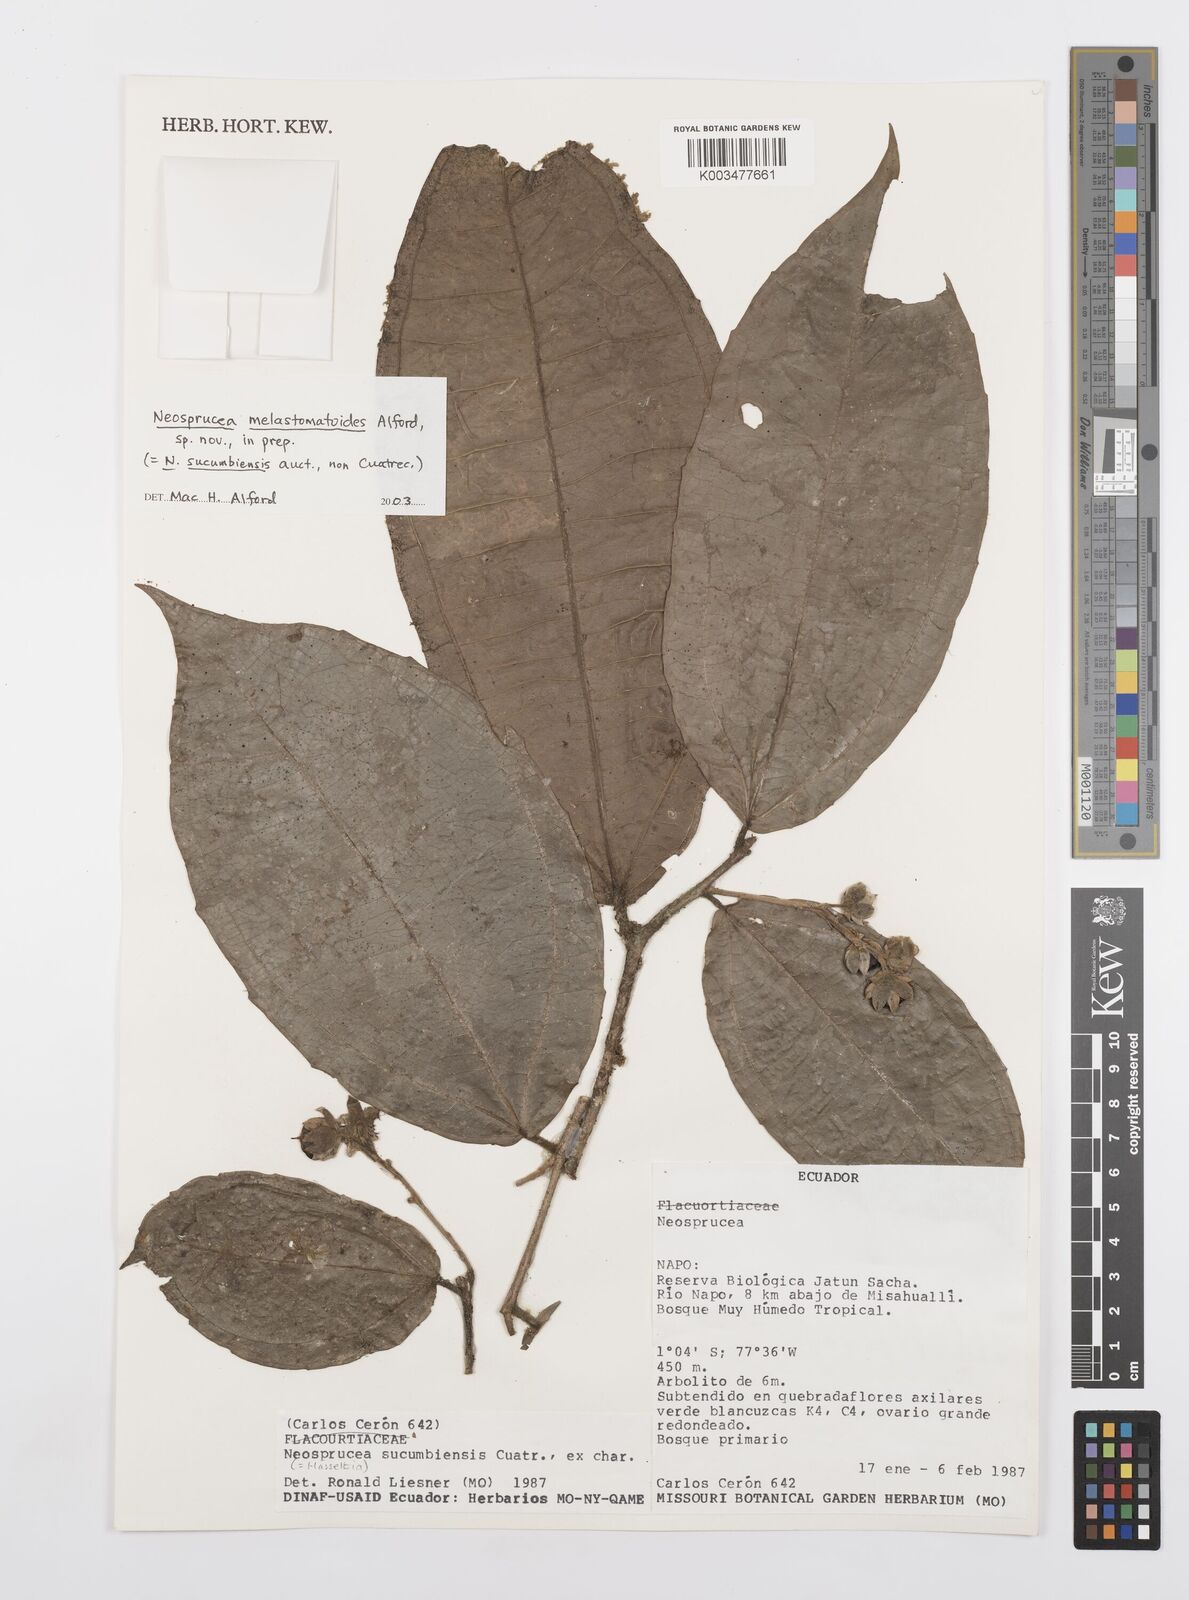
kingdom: Plantae
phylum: Tracheophyta
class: Magnoliopsida
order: Malpighiales
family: Salicaceae
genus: Neosprucea
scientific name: Neosprucea sucumbiensis
